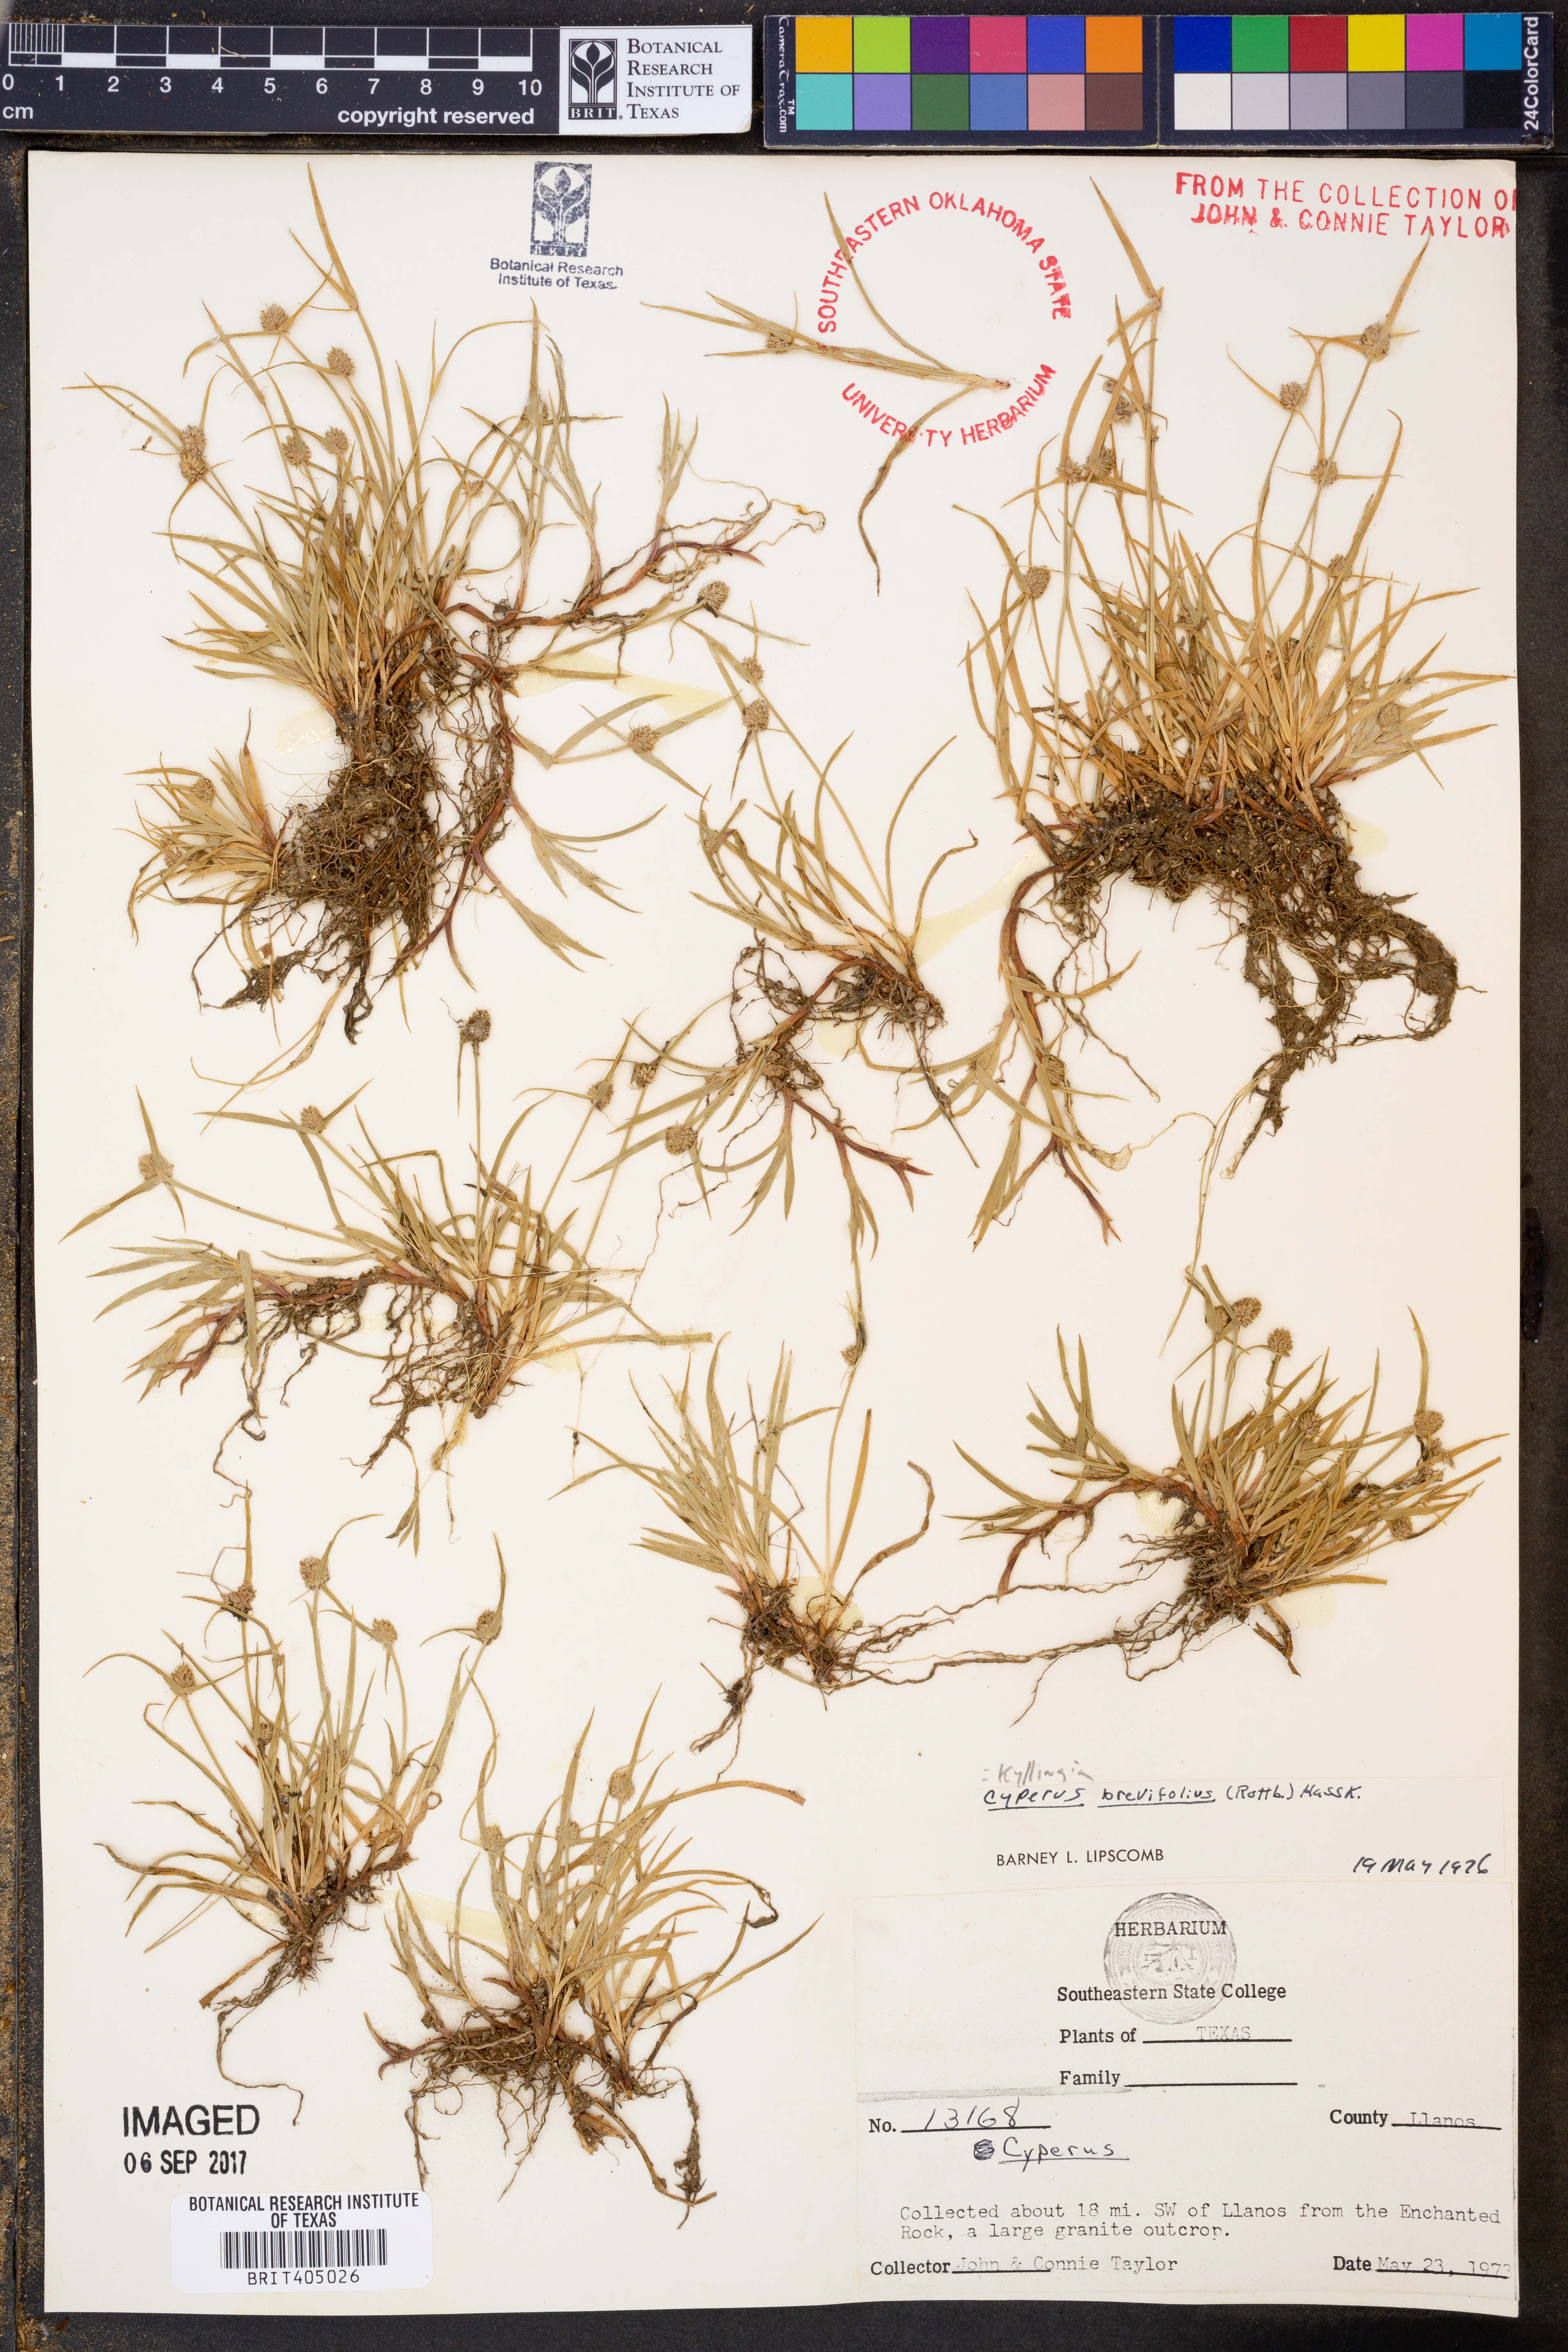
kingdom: Plantae
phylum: Tracheophyta
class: Liliopsida
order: Poales
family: Cyperaceae
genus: Cyperus
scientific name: Cyperus brevifolius
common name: Globe kyllinga
